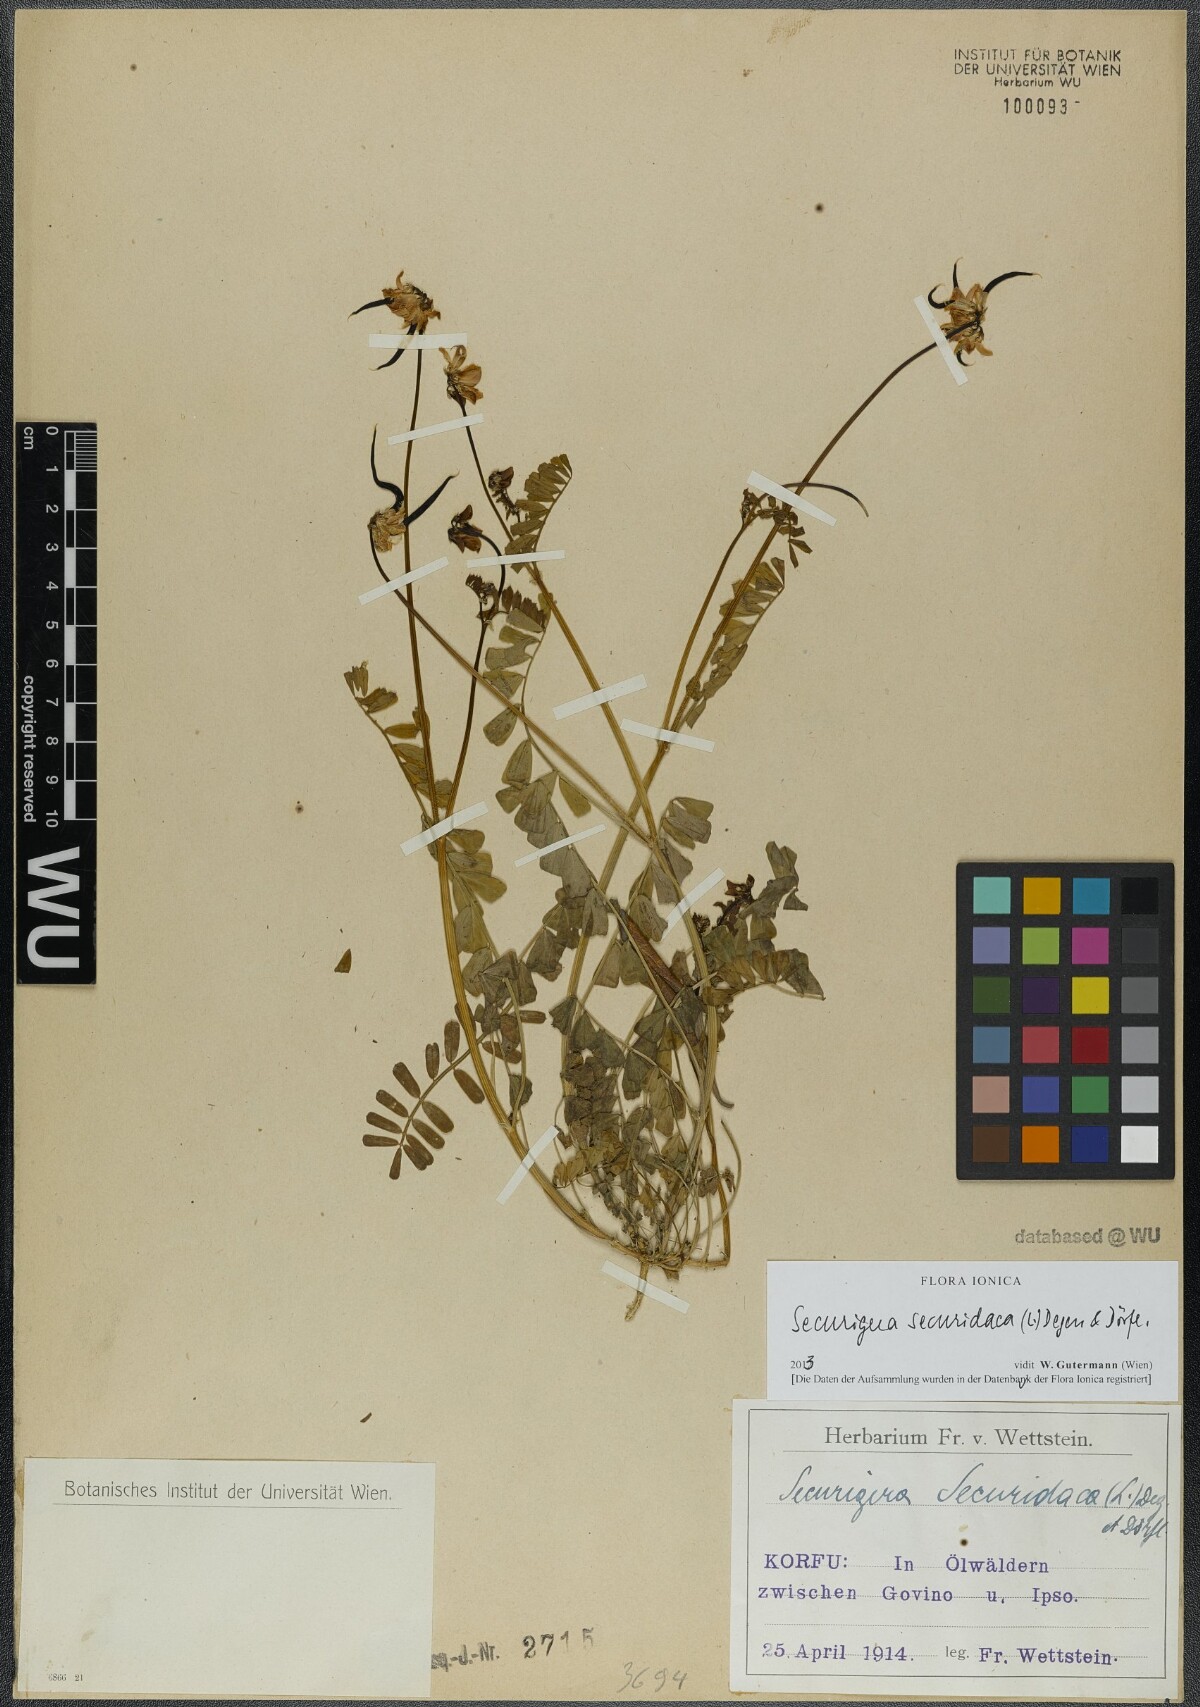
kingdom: Plantae
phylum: Tracheophyta
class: Magnoliopsida
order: Fabales
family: Fabaceae
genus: Coronilla
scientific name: Coronilla securidaca
